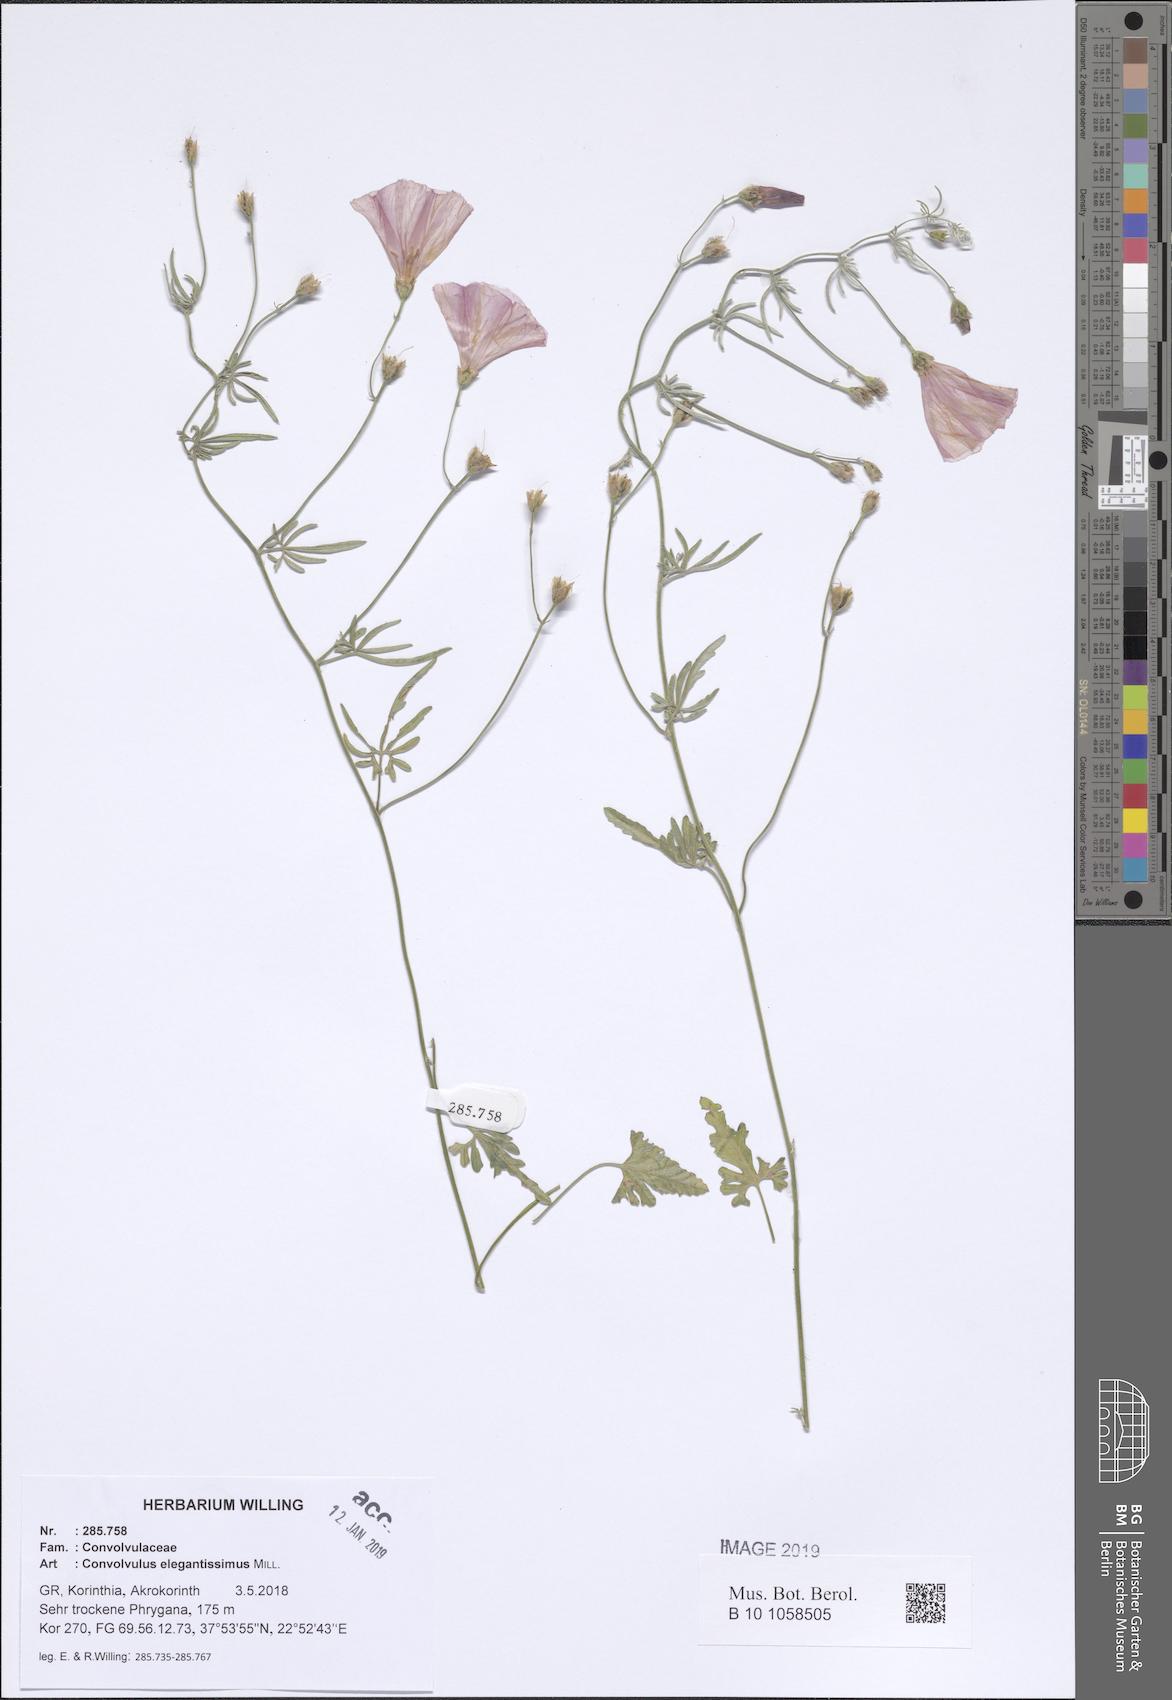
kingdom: Plantae
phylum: Tracheophyta
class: Magnoliopsida
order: Solanales
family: Convolvulaceae
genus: Convolvulus
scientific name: Convolvulus elegantissimus
